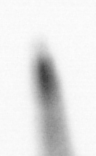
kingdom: Animalia
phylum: Chaetognatha
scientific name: Chaetognatha
